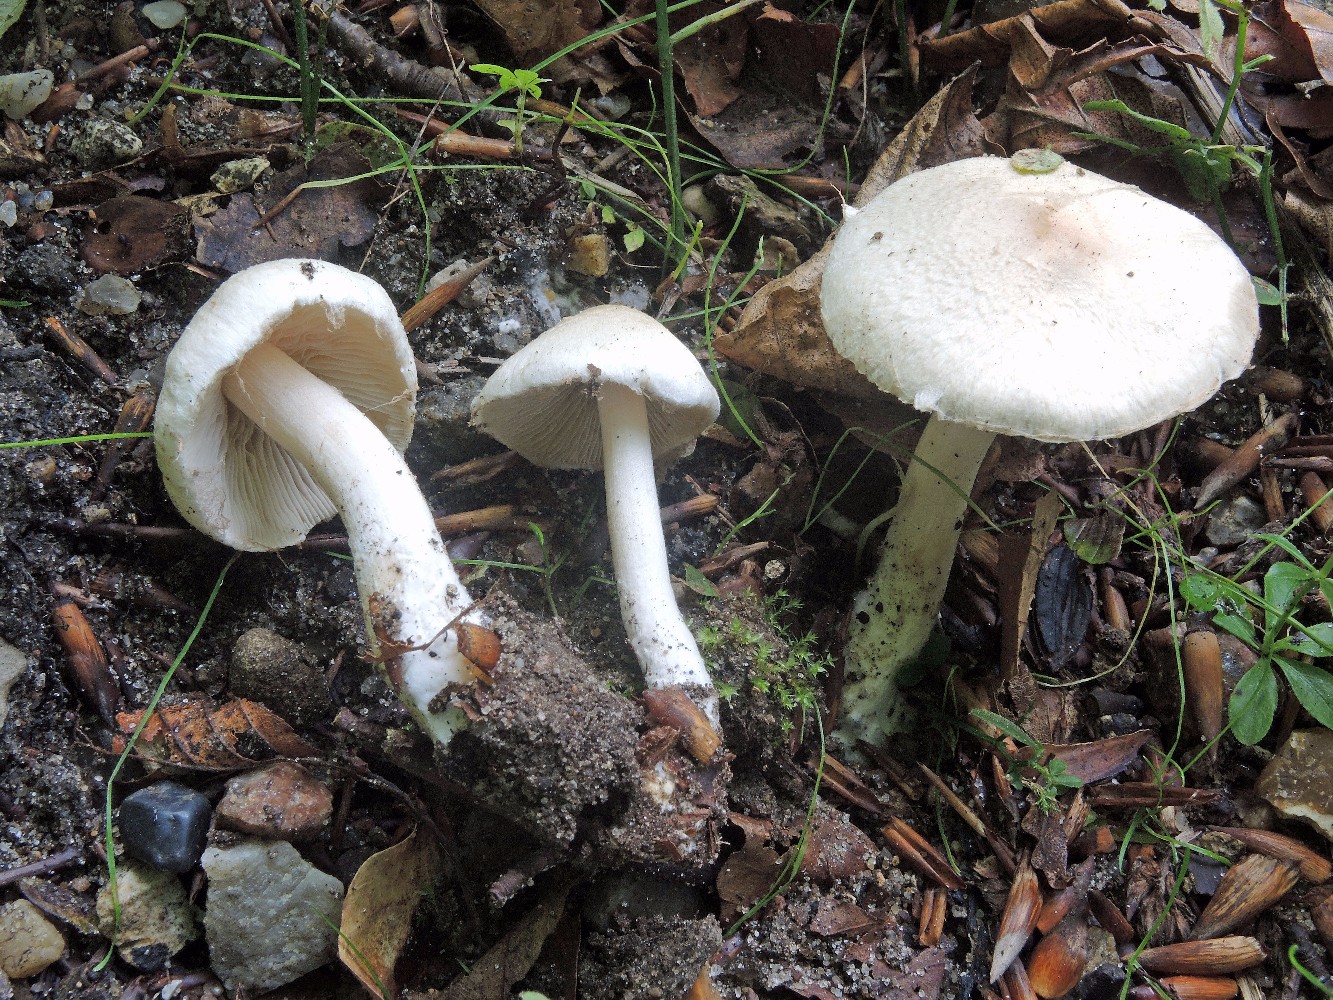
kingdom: Fungi
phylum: Basidiomycota
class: Agaricomycetes
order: Agaricales
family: Inocybaceae
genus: Inocybe
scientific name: Inocybe sindonia
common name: bleg trævlhat
